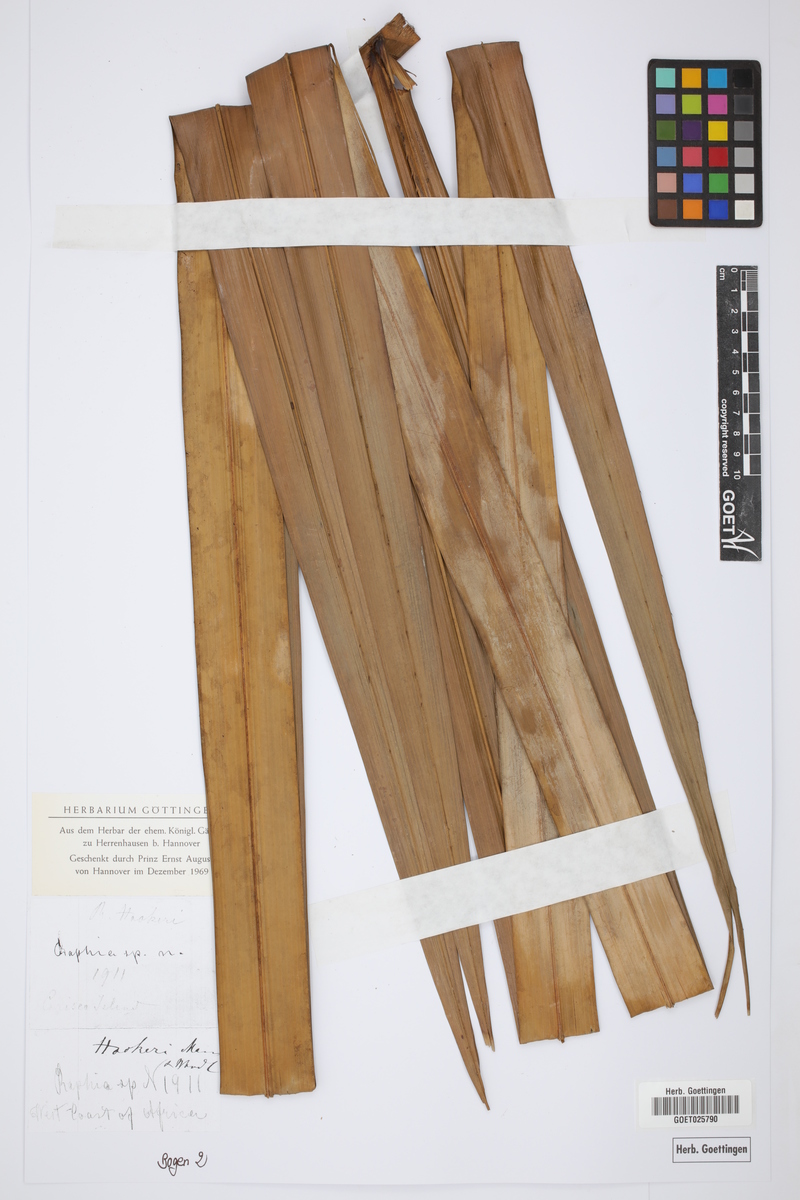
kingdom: Plantae
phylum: Tracheophyta
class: Liliopsida
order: Arecales
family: Arecaceae
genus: Raphia
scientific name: Raphia hookeri
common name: Wine palm
